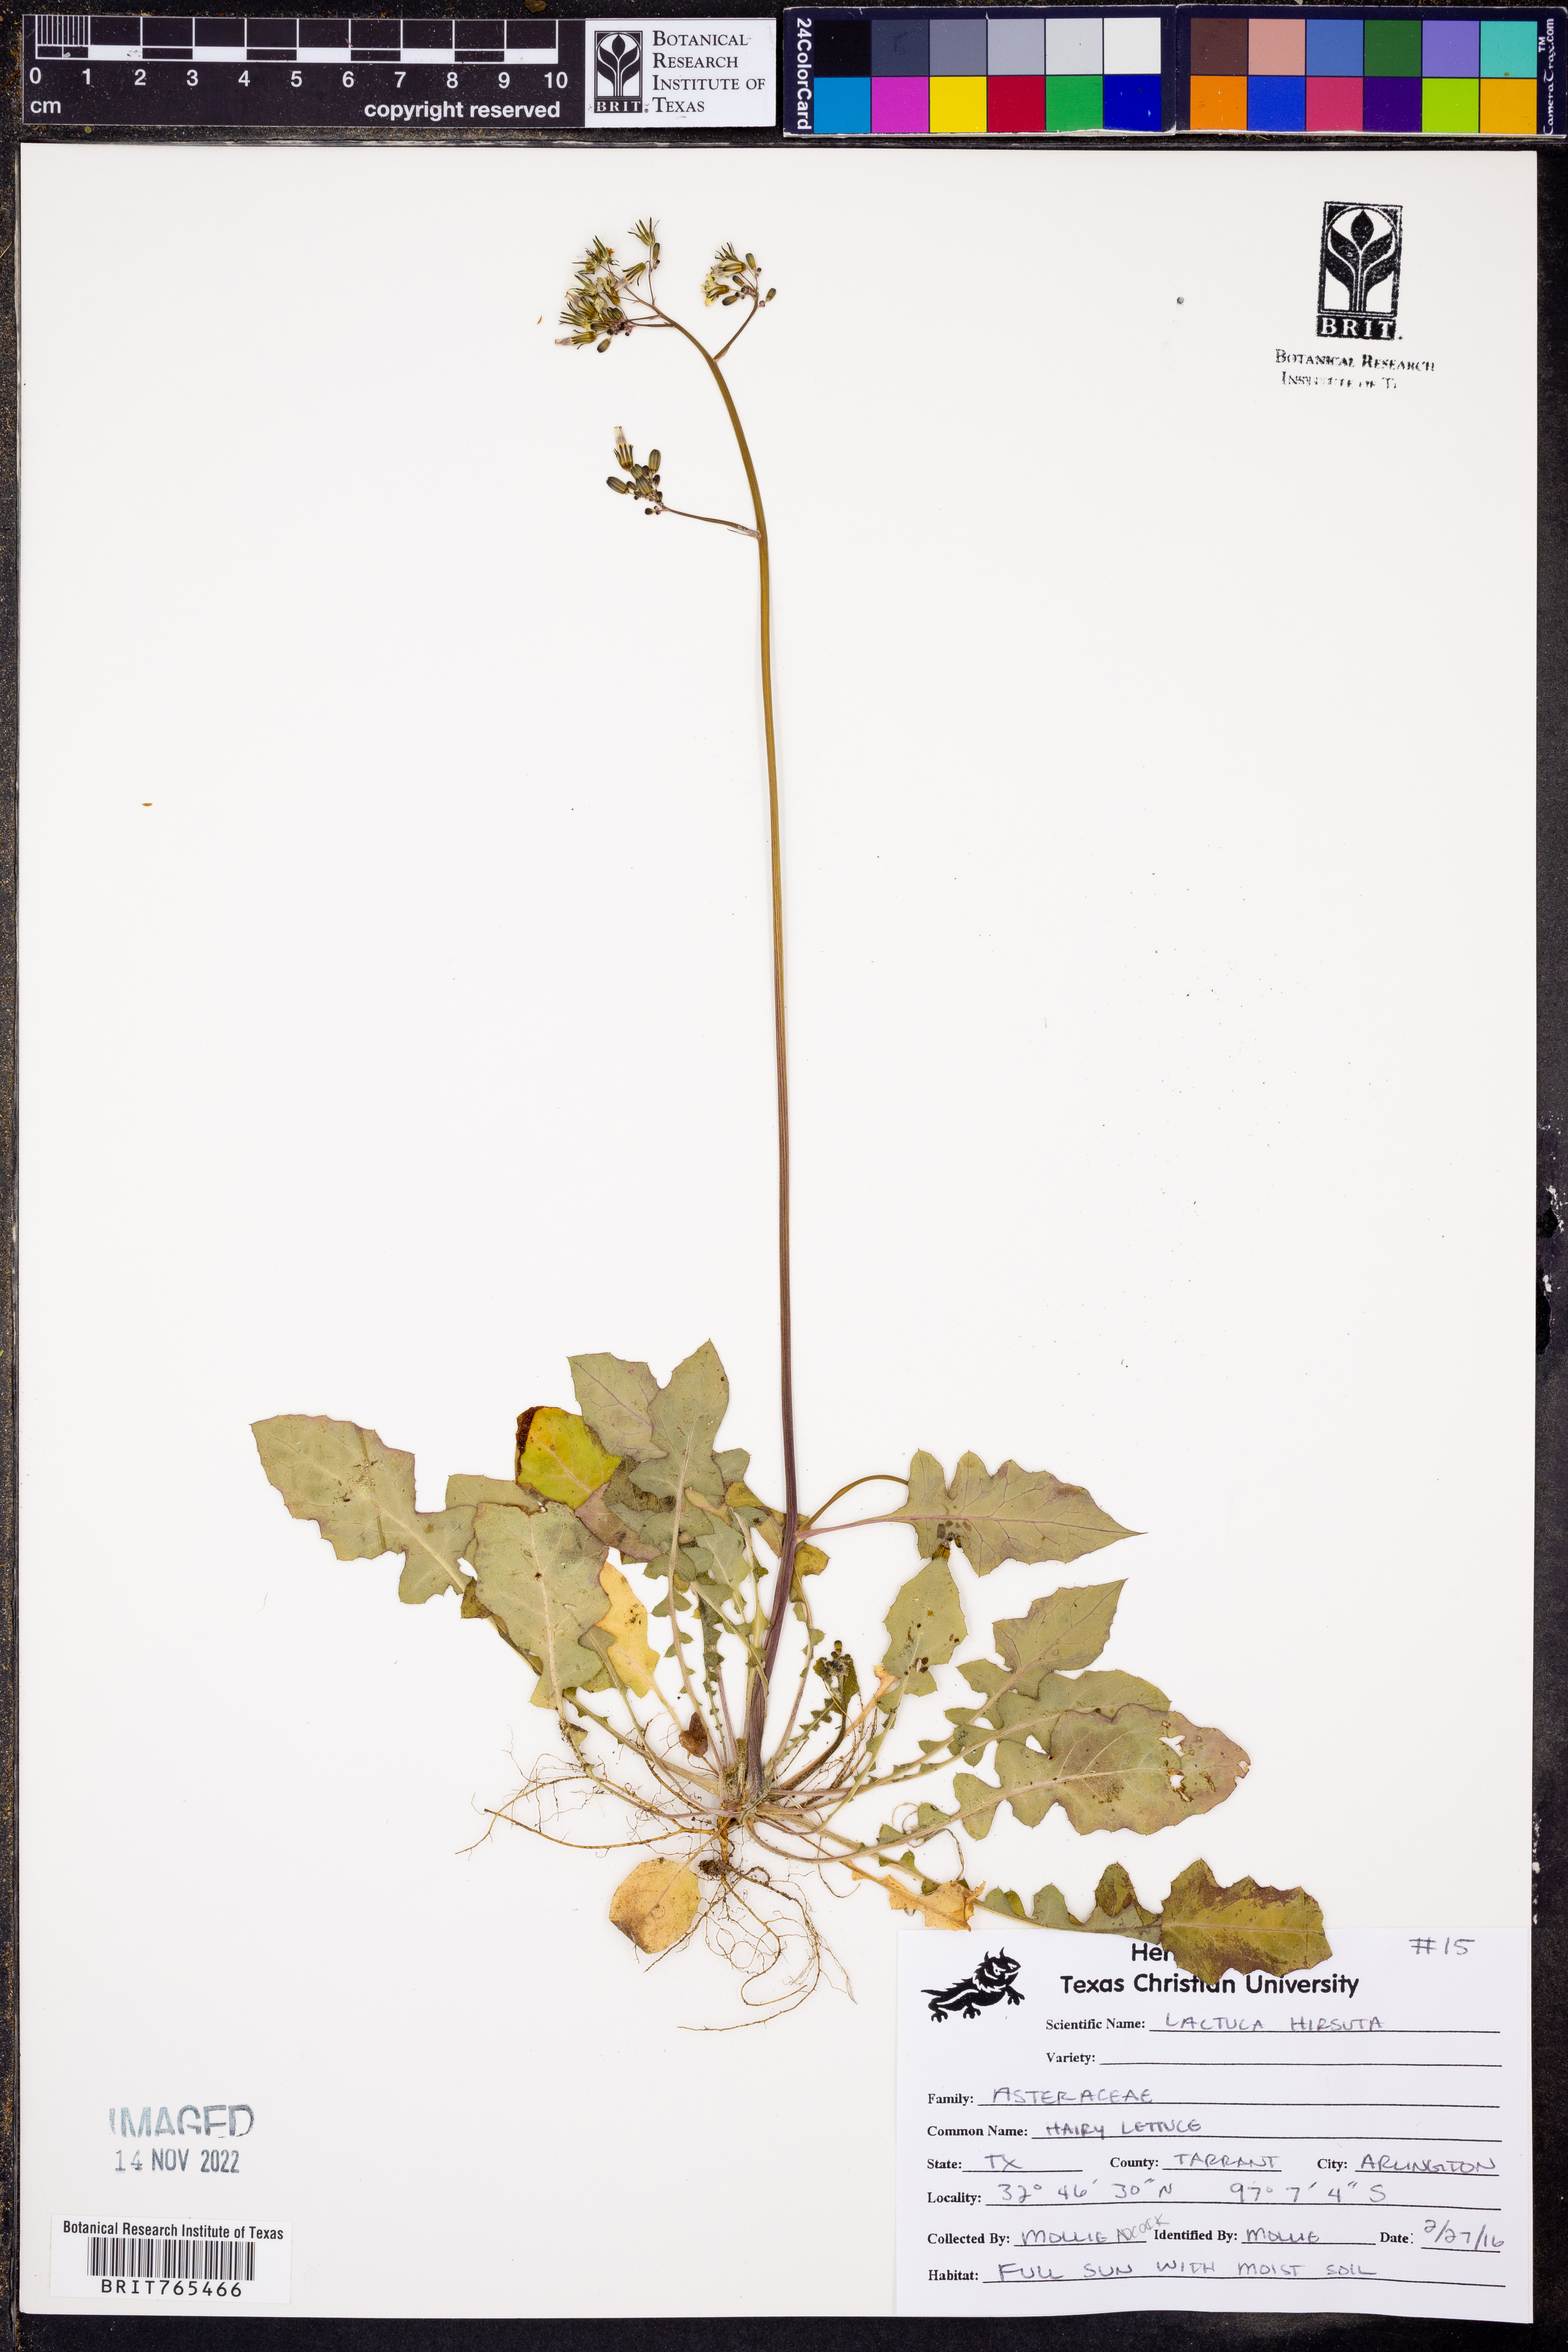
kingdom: Plantae
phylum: Tracheophyta
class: Magnoliopsida
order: Asterales
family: Asteraceae
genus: Lactuca
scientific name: Lactuca hirsuta
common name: Hairy lettuce
